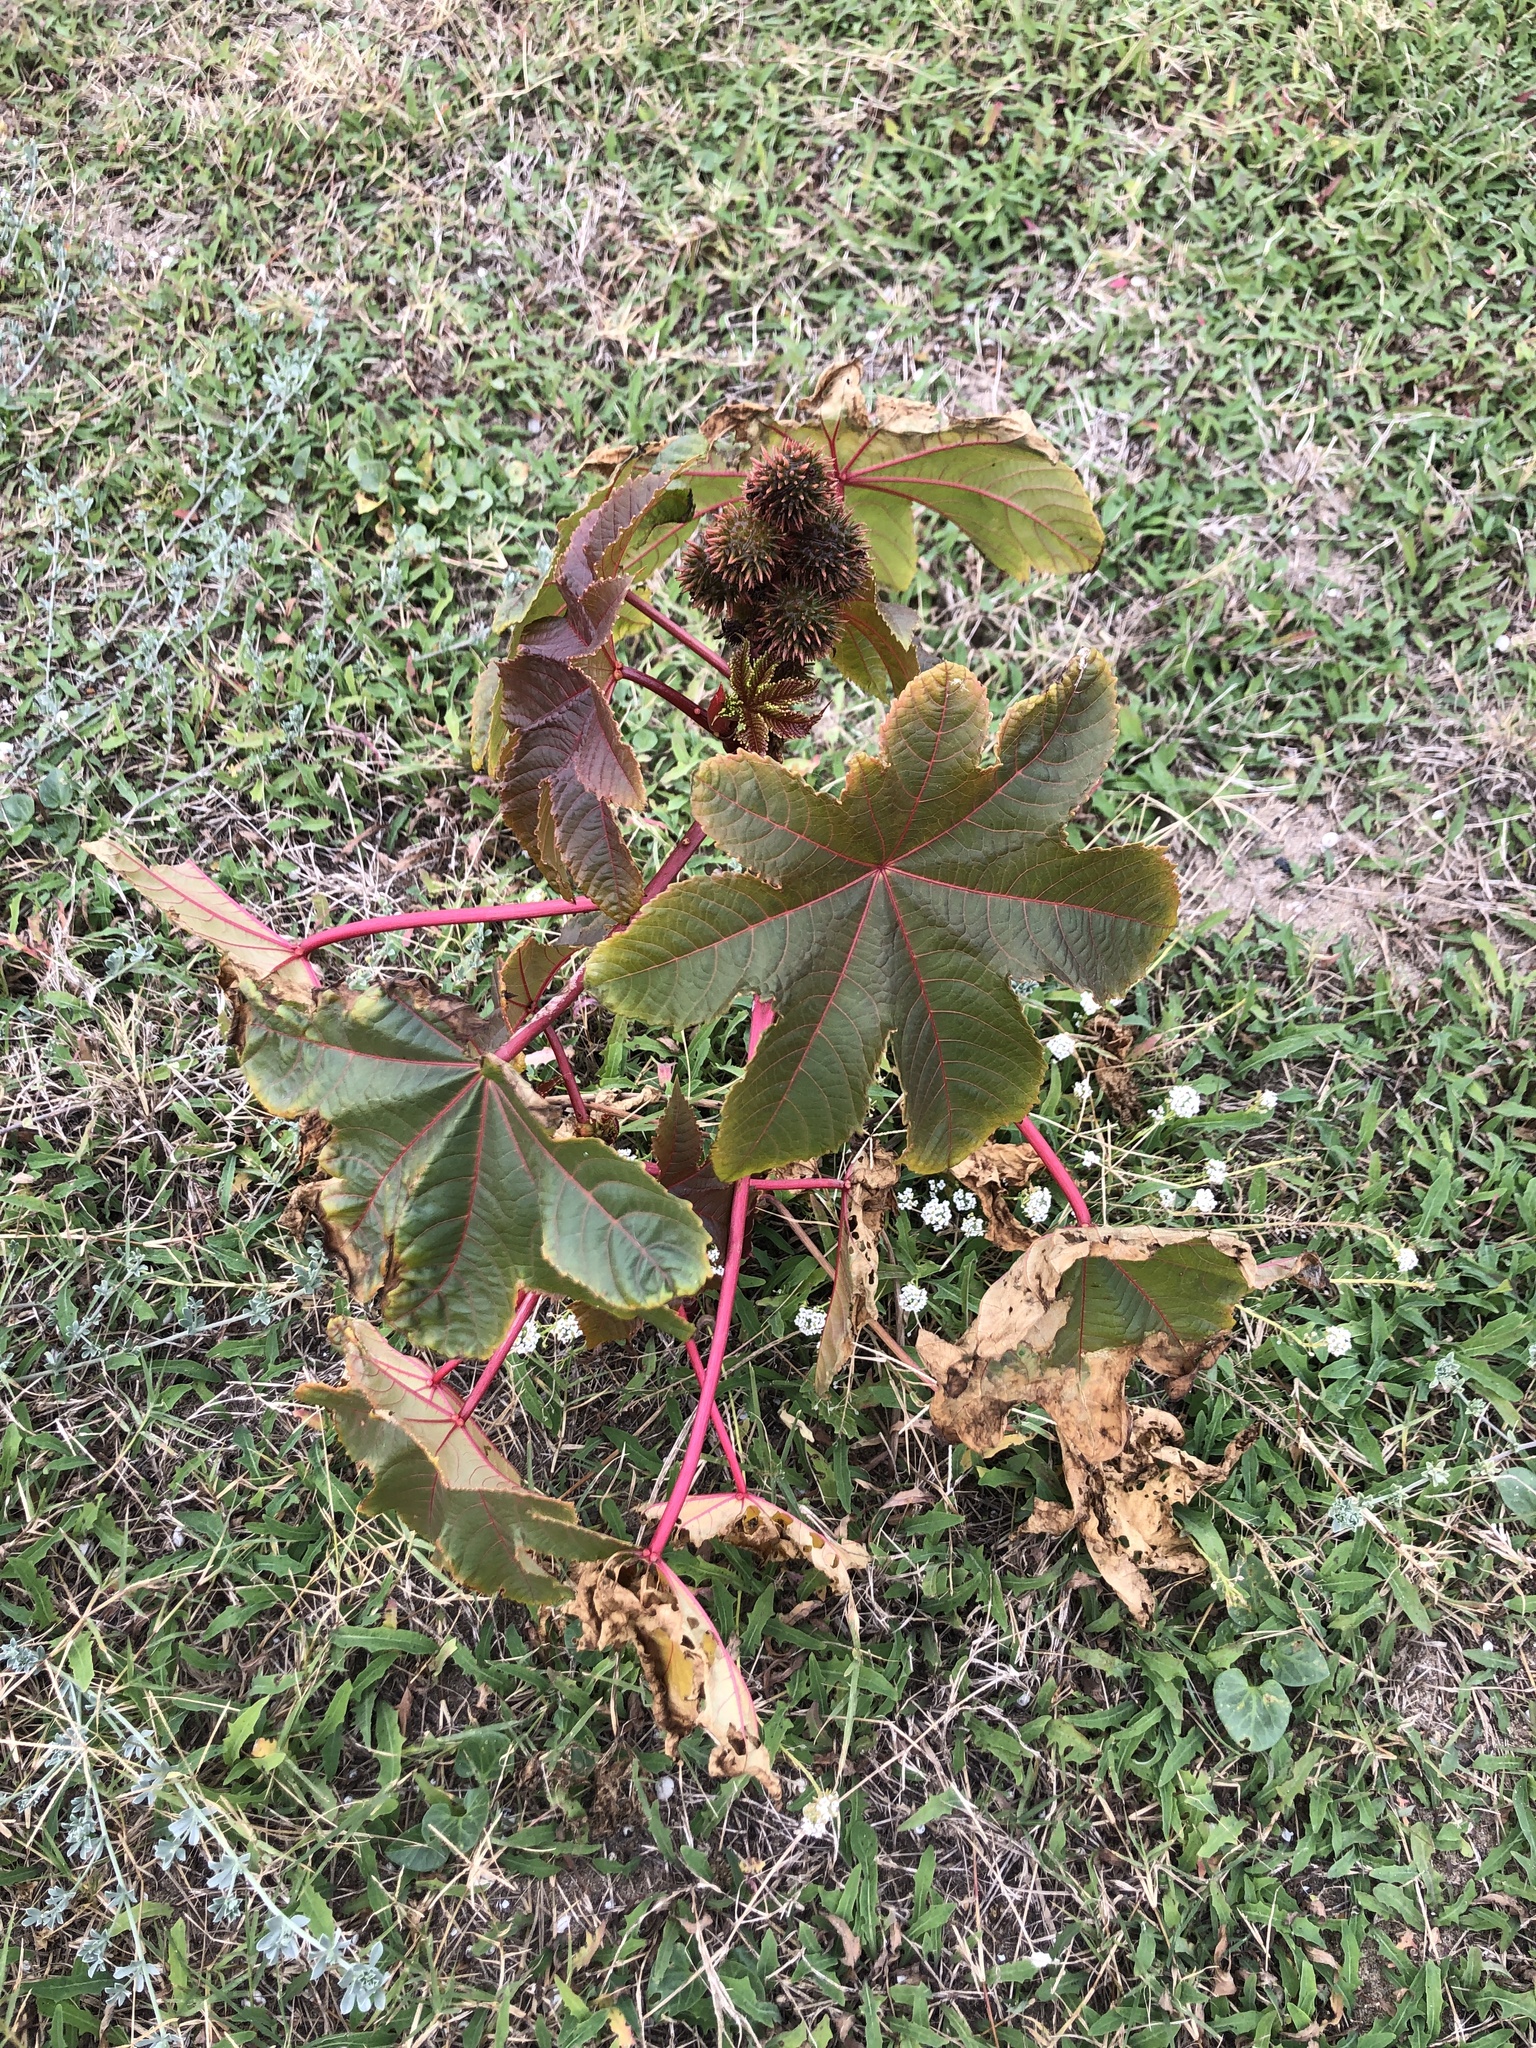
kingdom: Plantae
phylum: Tracheophyta
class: Magnoliopsida
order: Malpighiales
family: Euphorbiaceae
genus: Ricinus
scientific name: Ricinus communis
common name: Castor-oil-plant
